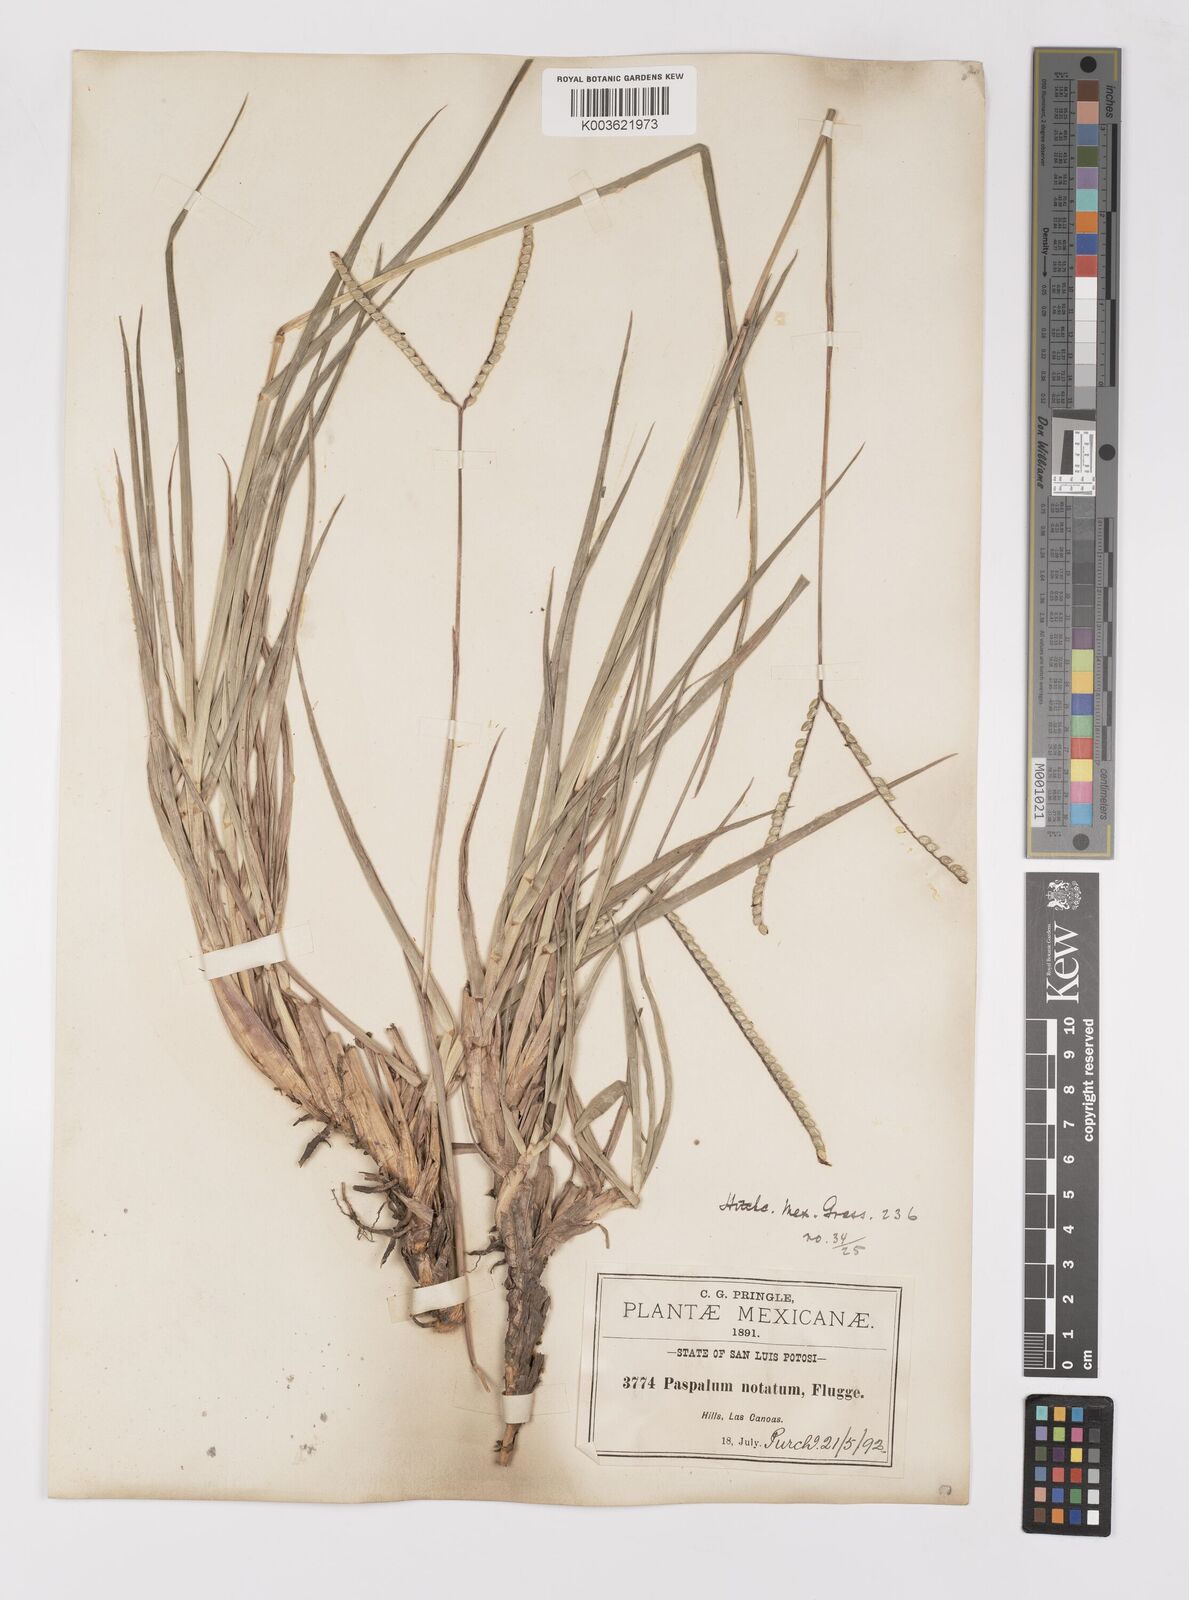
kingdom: Plantae
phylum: Tracheophyta
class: Liliopsida
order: Poales
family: Poaceae
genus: Paspalum
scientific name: Paspalum notatum
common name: Bahiagrass
